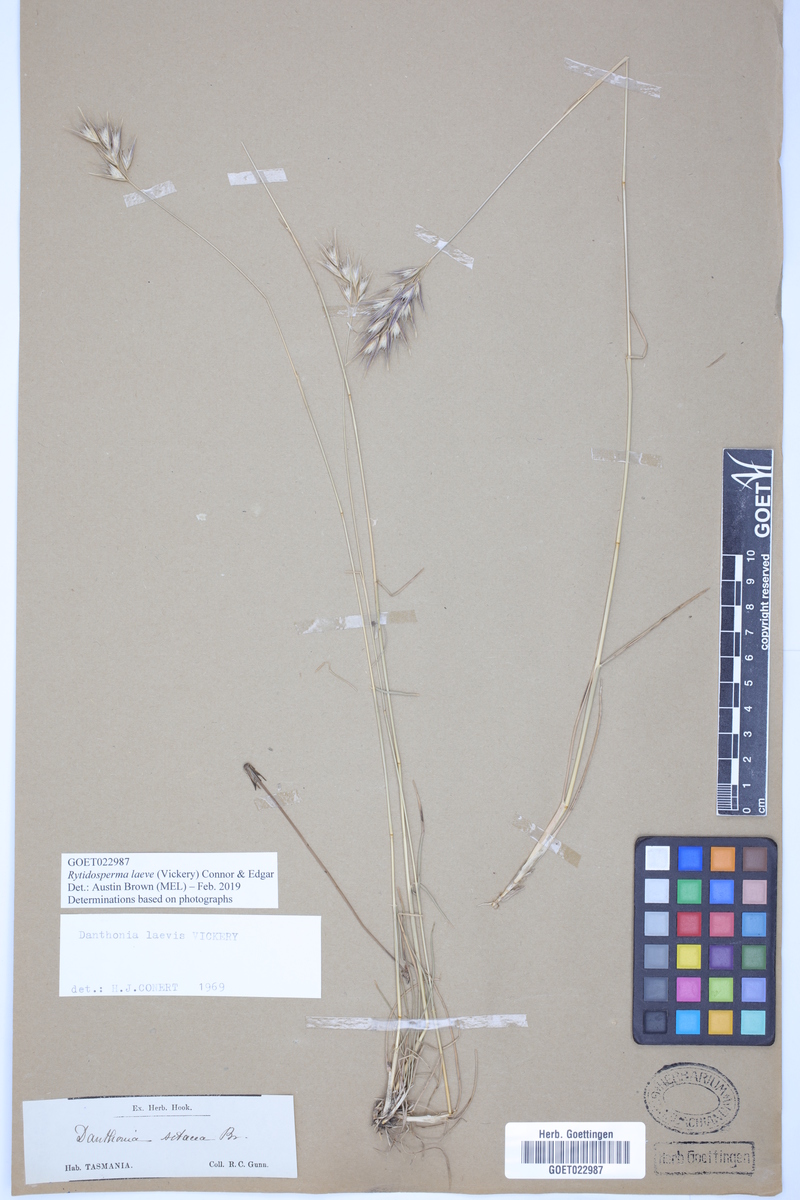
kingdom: Plantae
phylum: Tracheophyta
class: Liliopsida
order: Poales
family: Poaceae
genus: Rytidosperma
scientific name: Rytidosperma laeve
